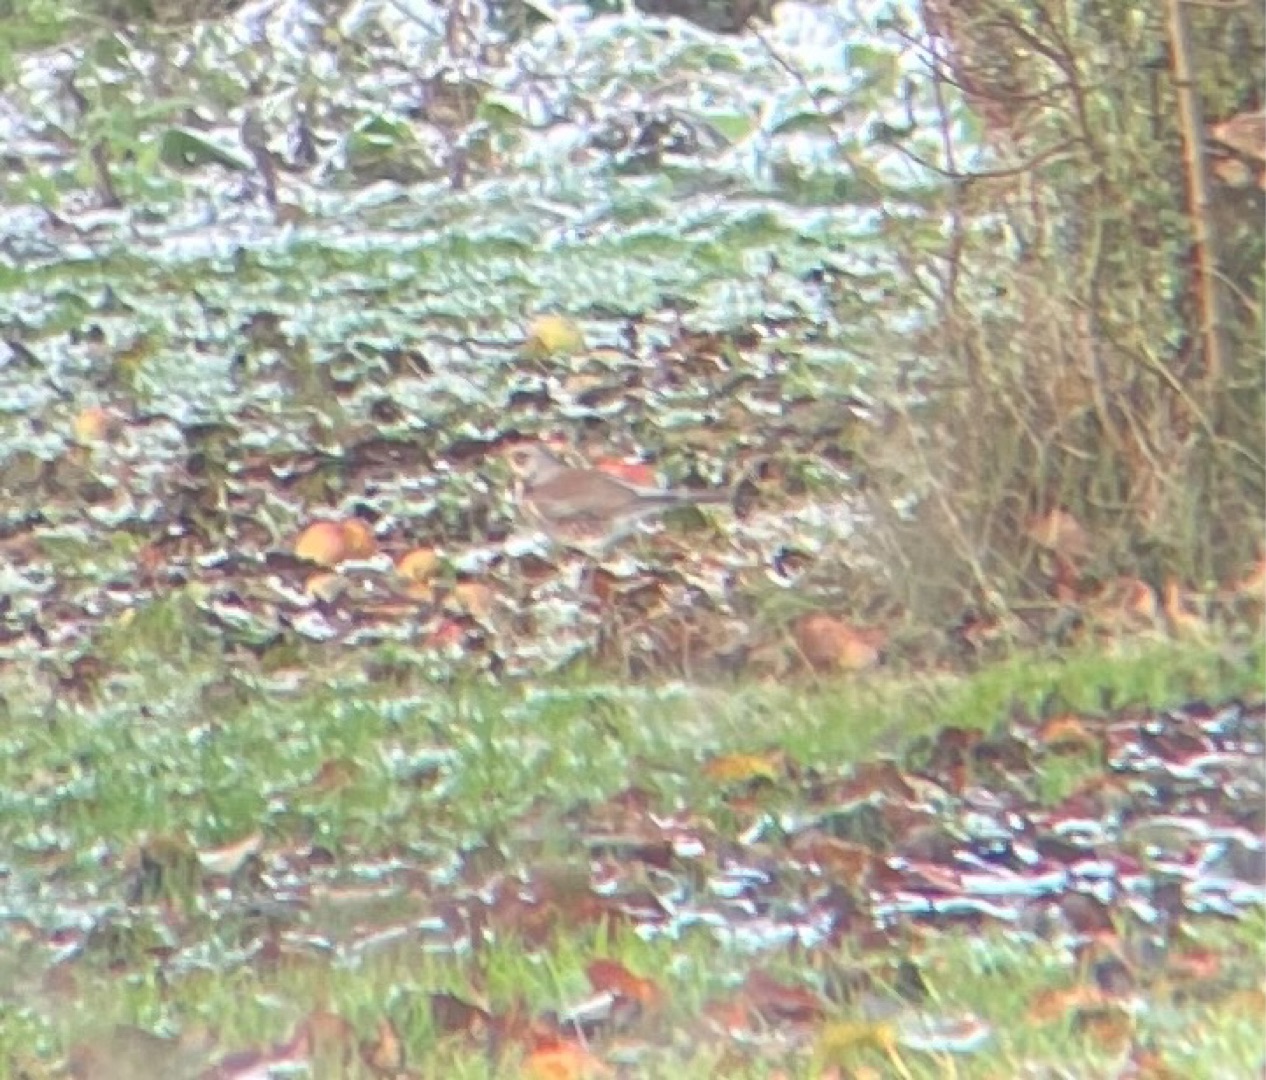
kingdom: Animalia
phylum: Chordata
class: Aves
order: Passeriformes
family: Turdidae
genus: Turdus
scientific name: Turdus pilaris
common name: Sjagger
